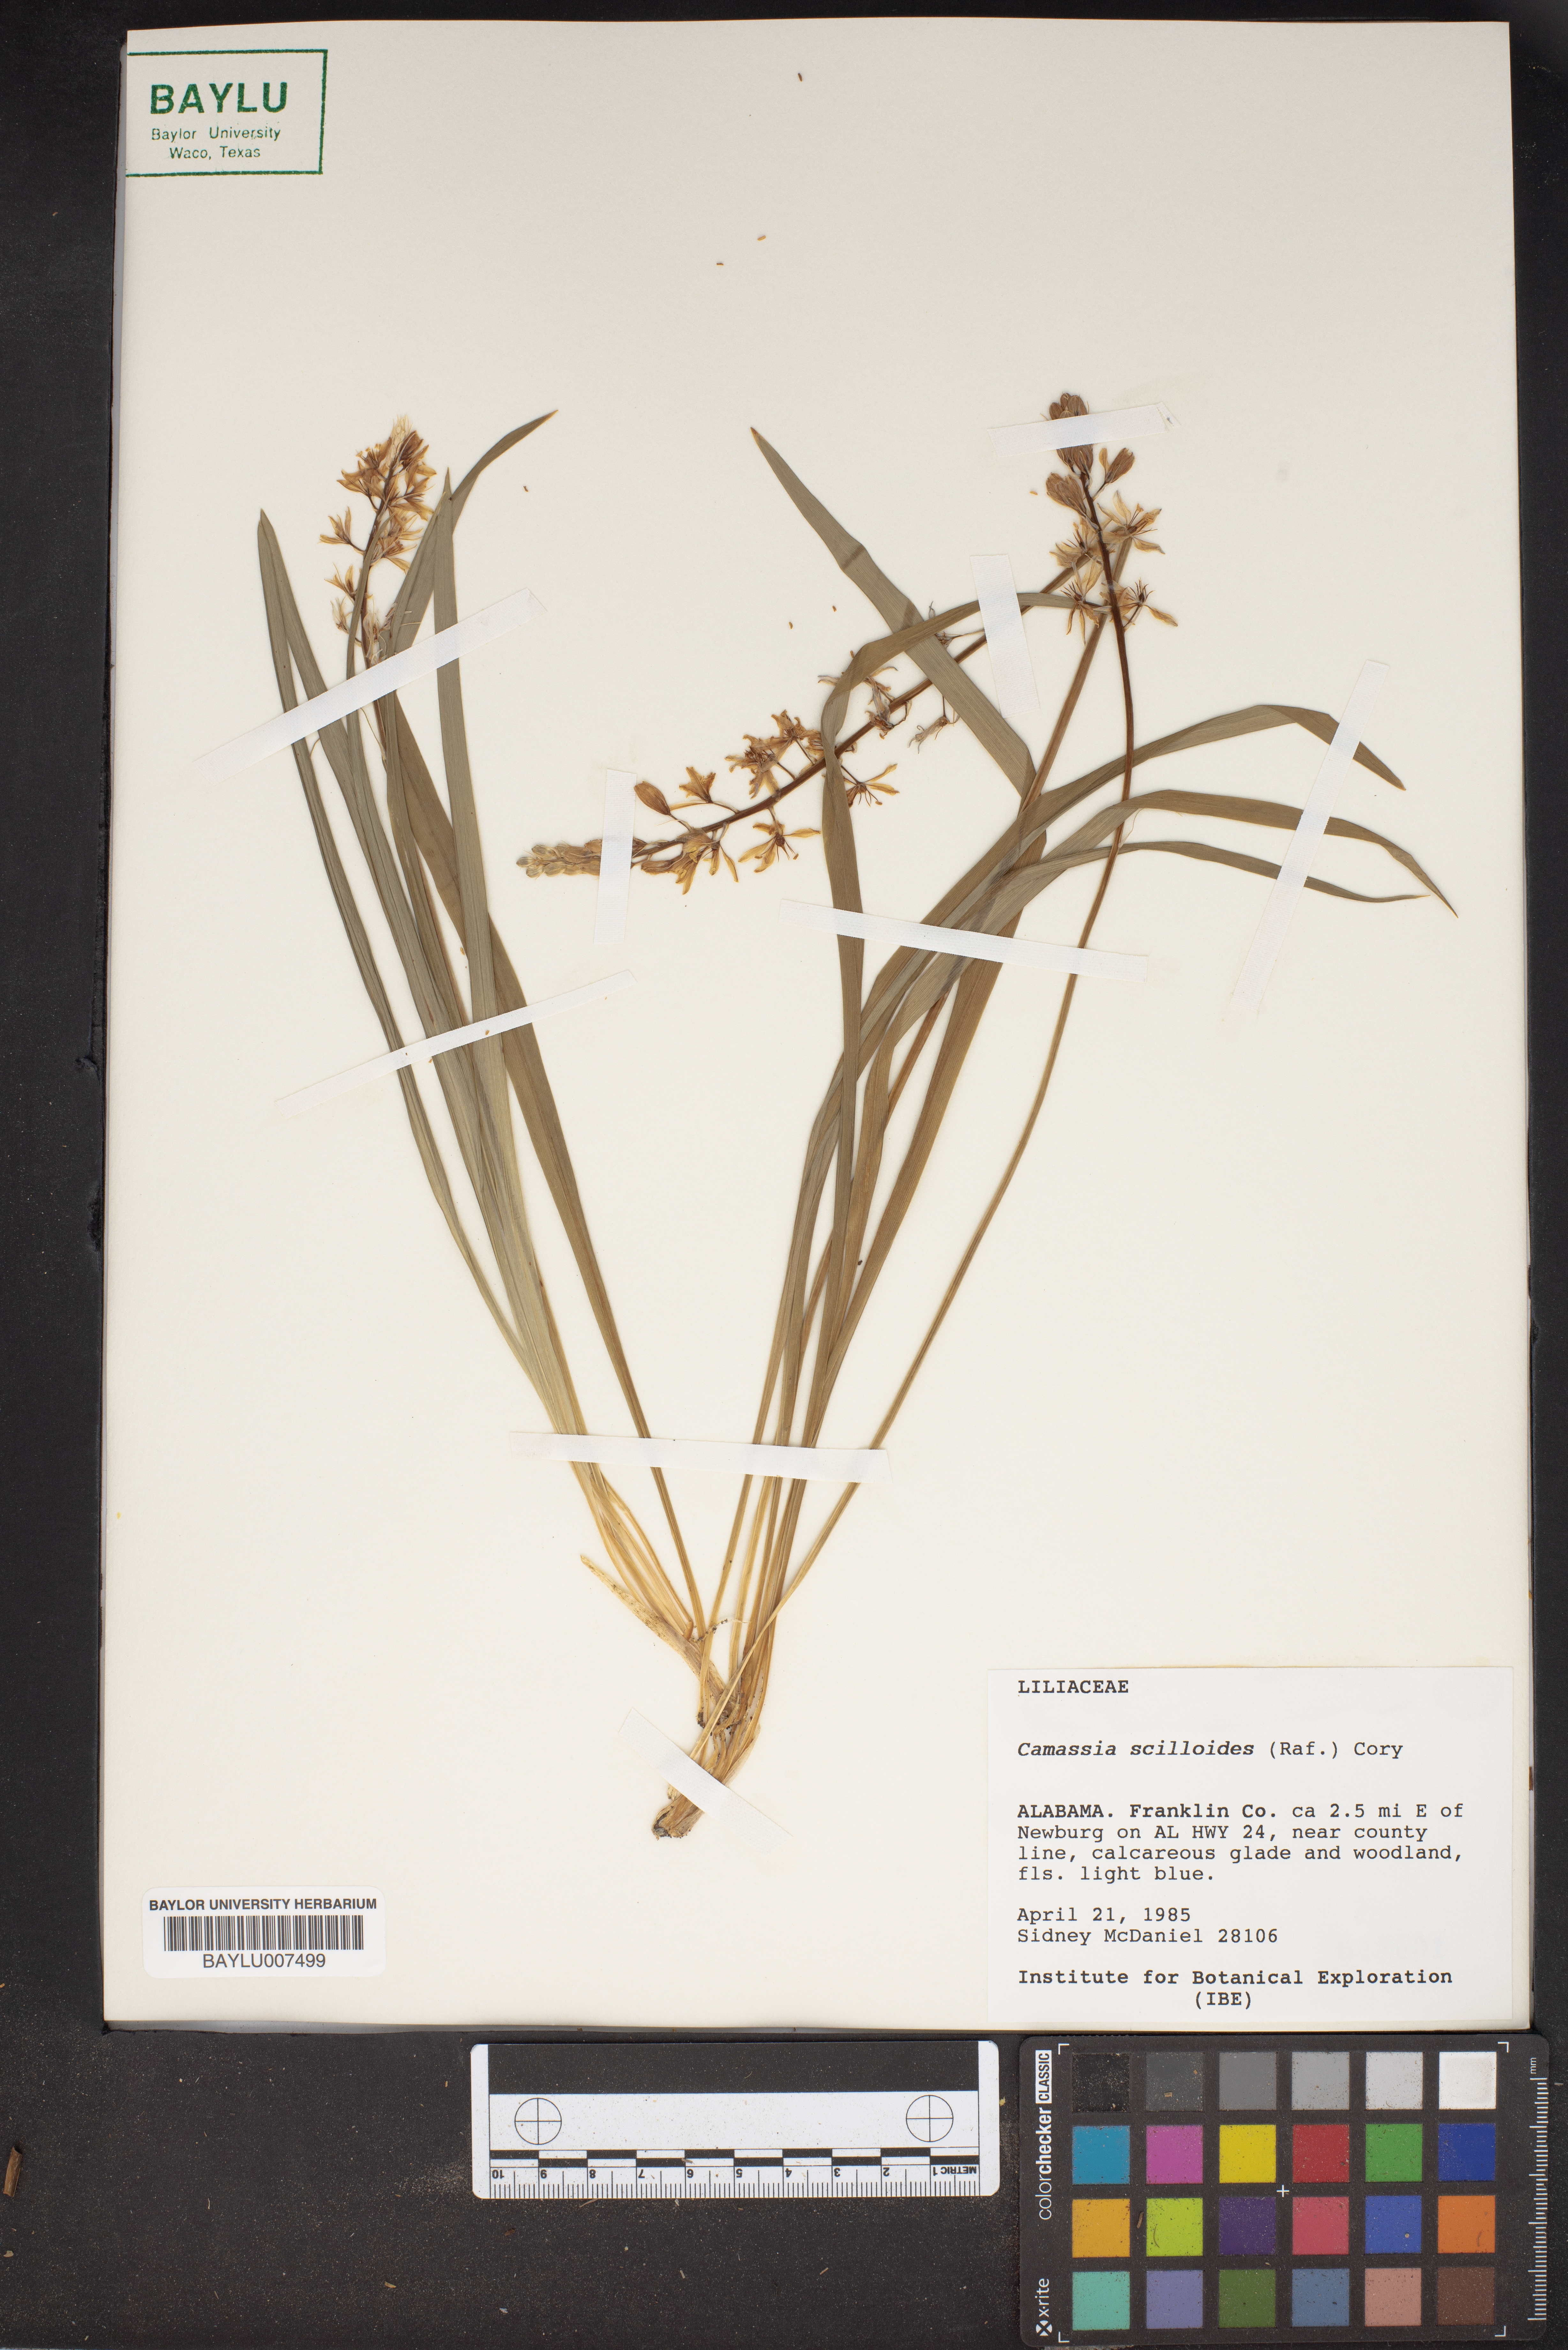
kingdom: Plantae
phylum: Tracheophyta
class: Liliopsida
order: Asparagales
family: Asparagaceae
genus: Camassia
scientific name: Camassia scilloides
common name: Wild hyacinth
